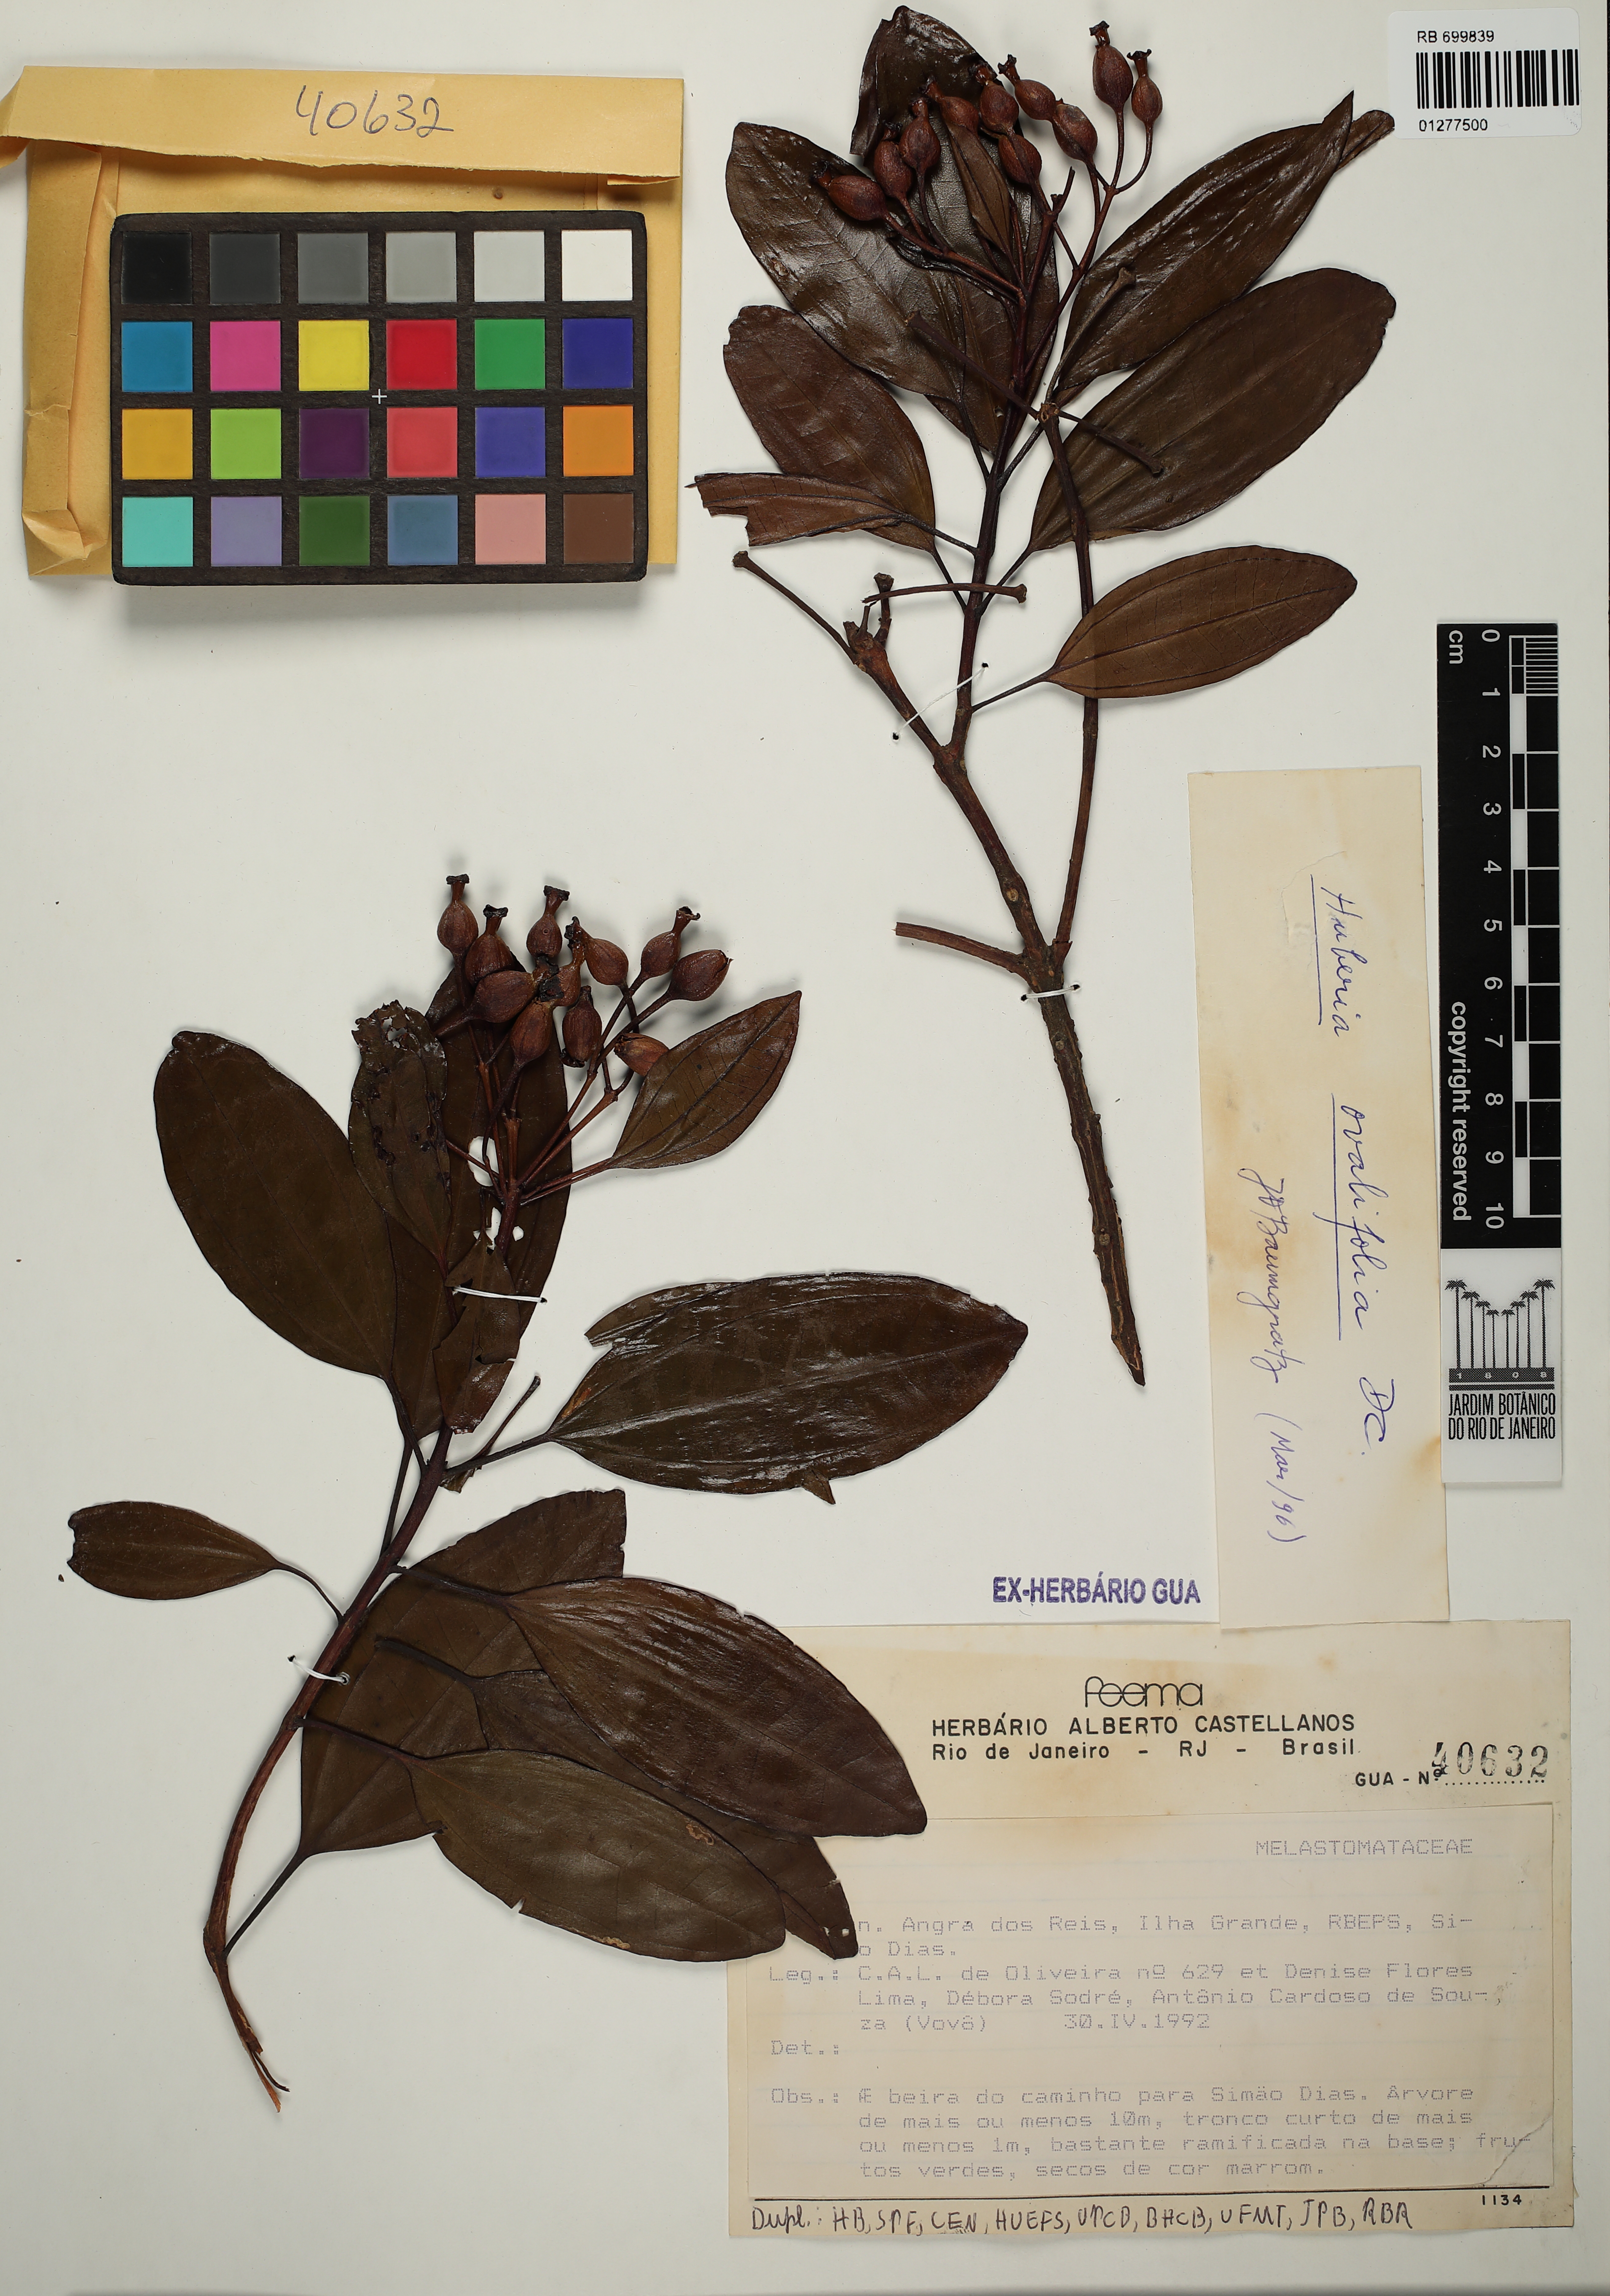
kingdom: Plantae
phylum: Tracheophyta
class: Magnoliopsida
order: Myrtales
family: Melastomataceae
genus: Huberia
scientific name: Huberia ovalifolia
